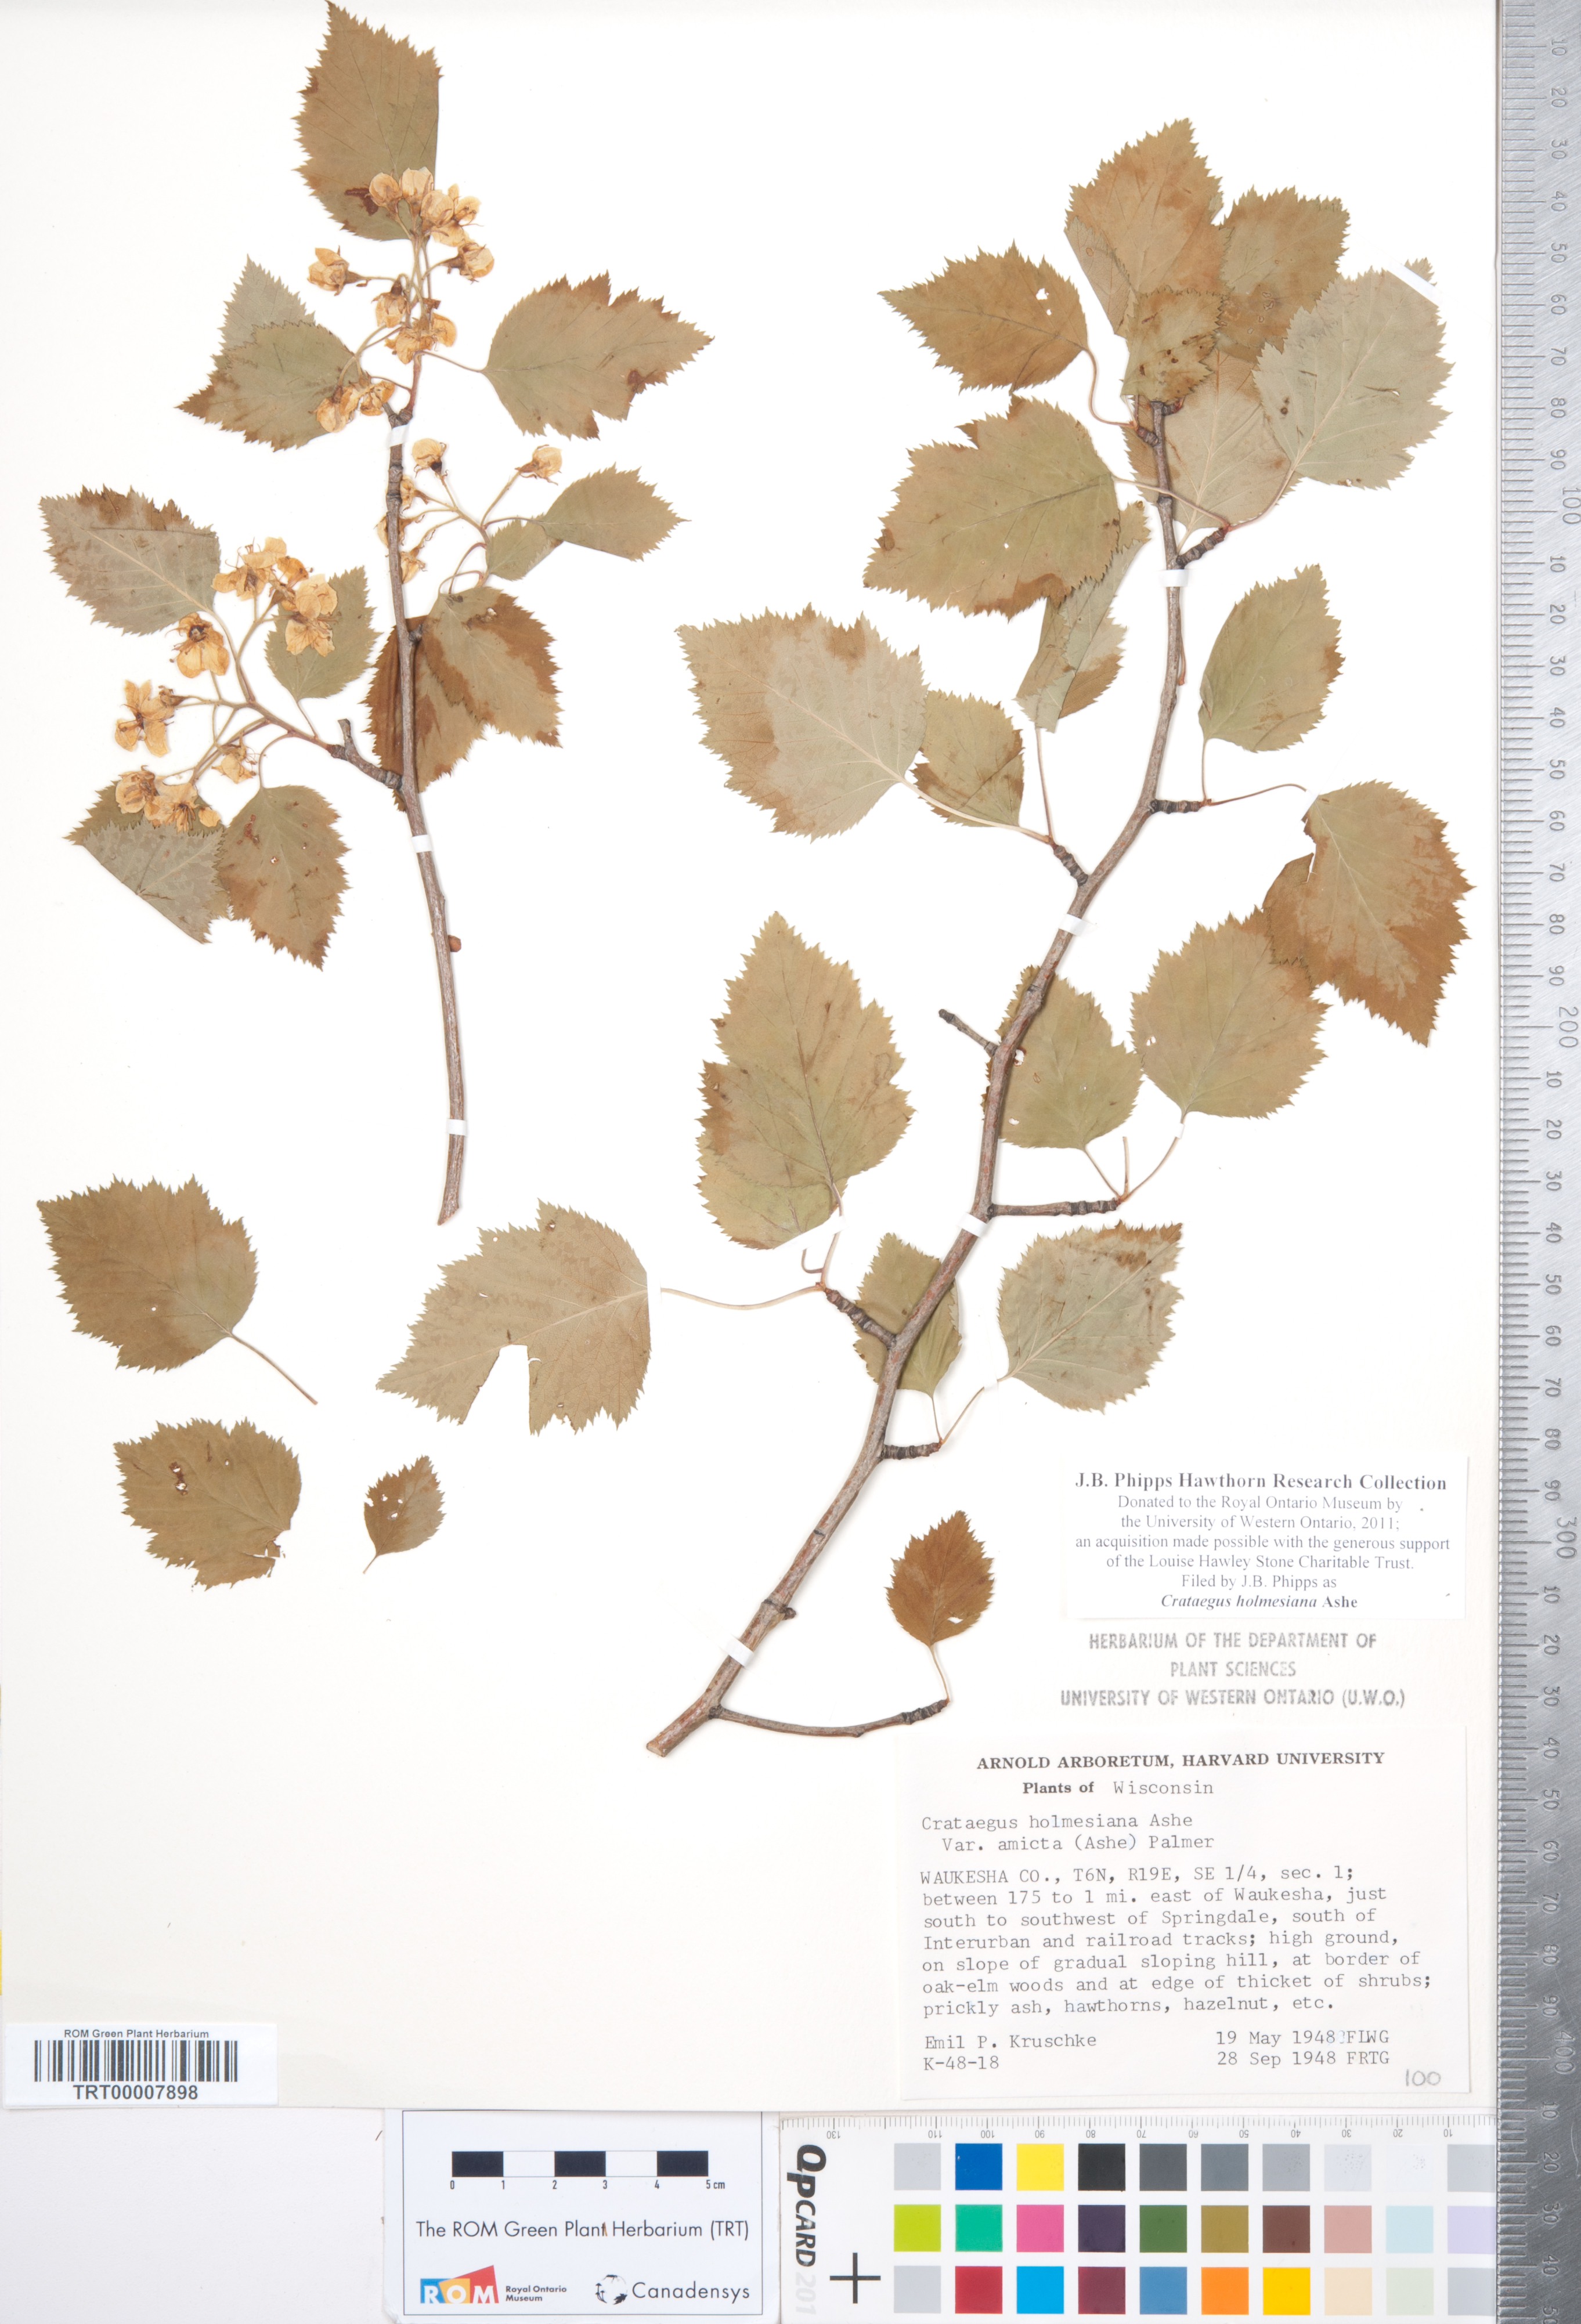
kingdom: Plantae
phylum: Tracheophyta
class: Magnoliopsida
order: Rosales
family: Rosaceae
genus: Crataegus
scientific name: Crataegus holmesiana
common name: Holmes' hawthorn
